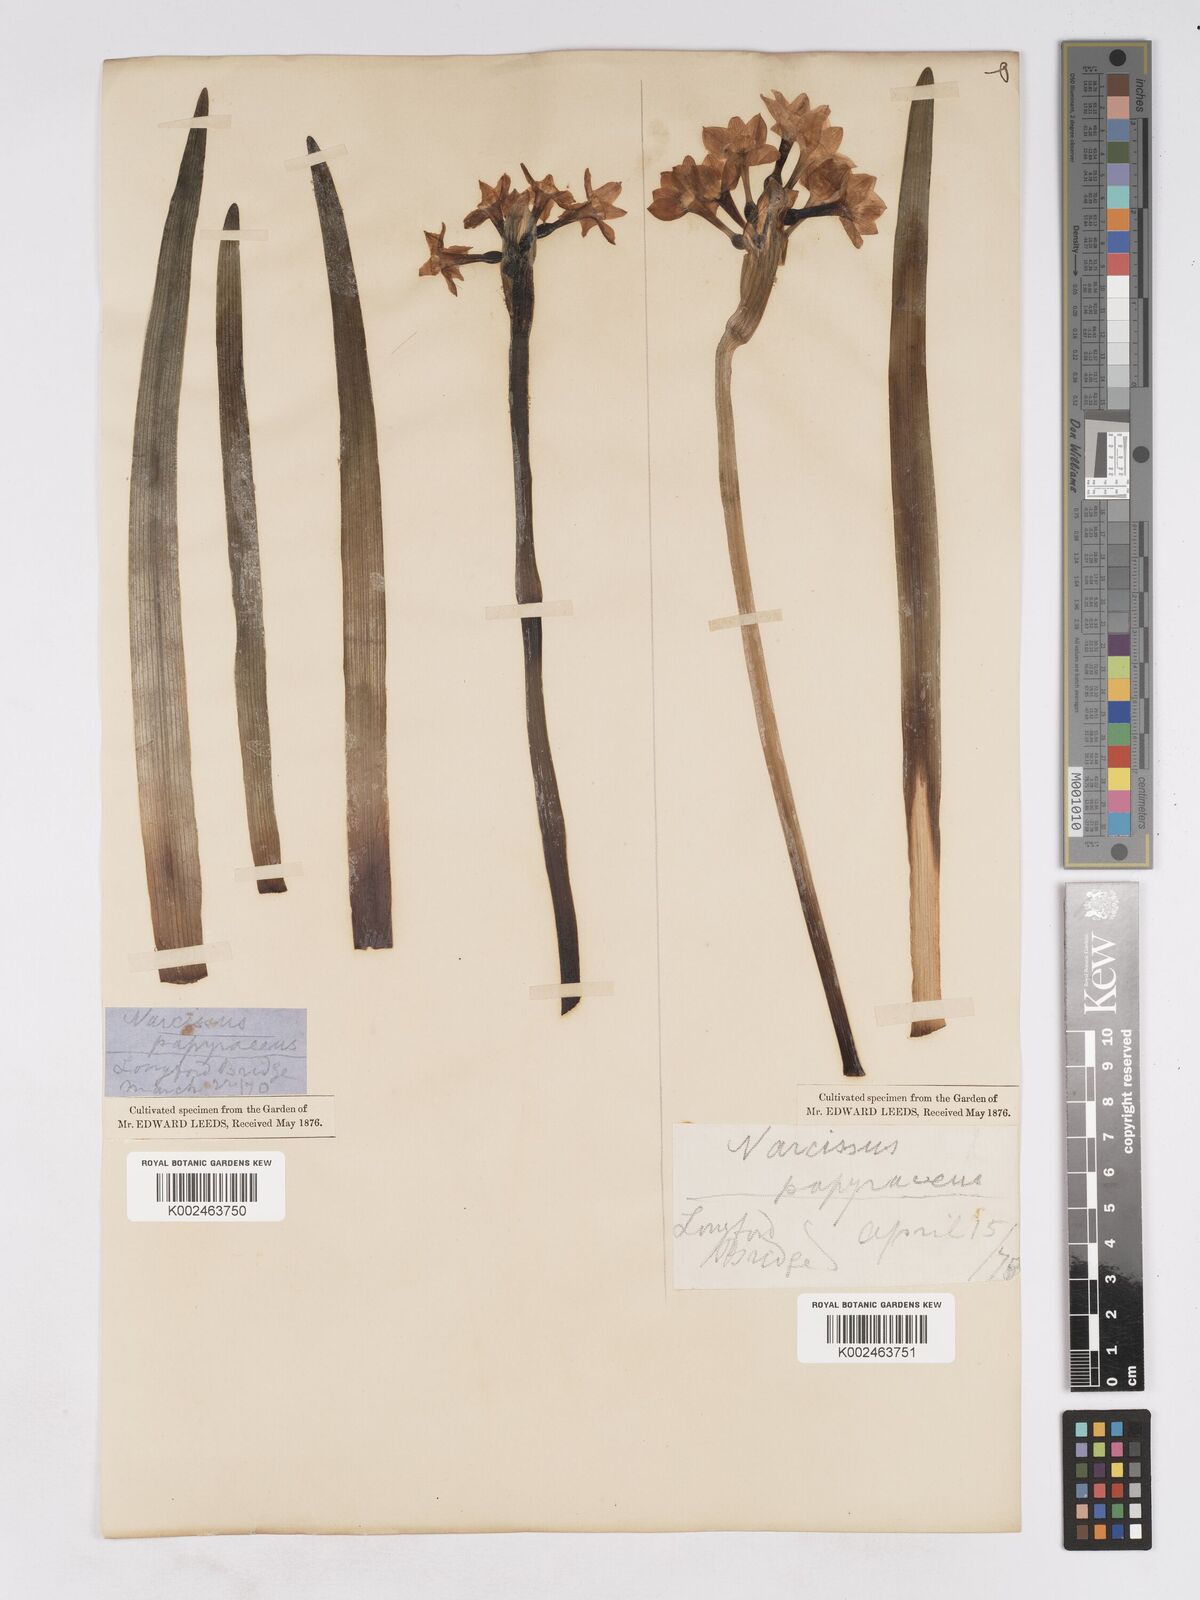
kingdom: Plantae
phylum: Tracheophyta
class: Liliopsida
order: Asparagales
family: Amaryllidaceae
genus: Narcissus
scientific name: Narcissus
